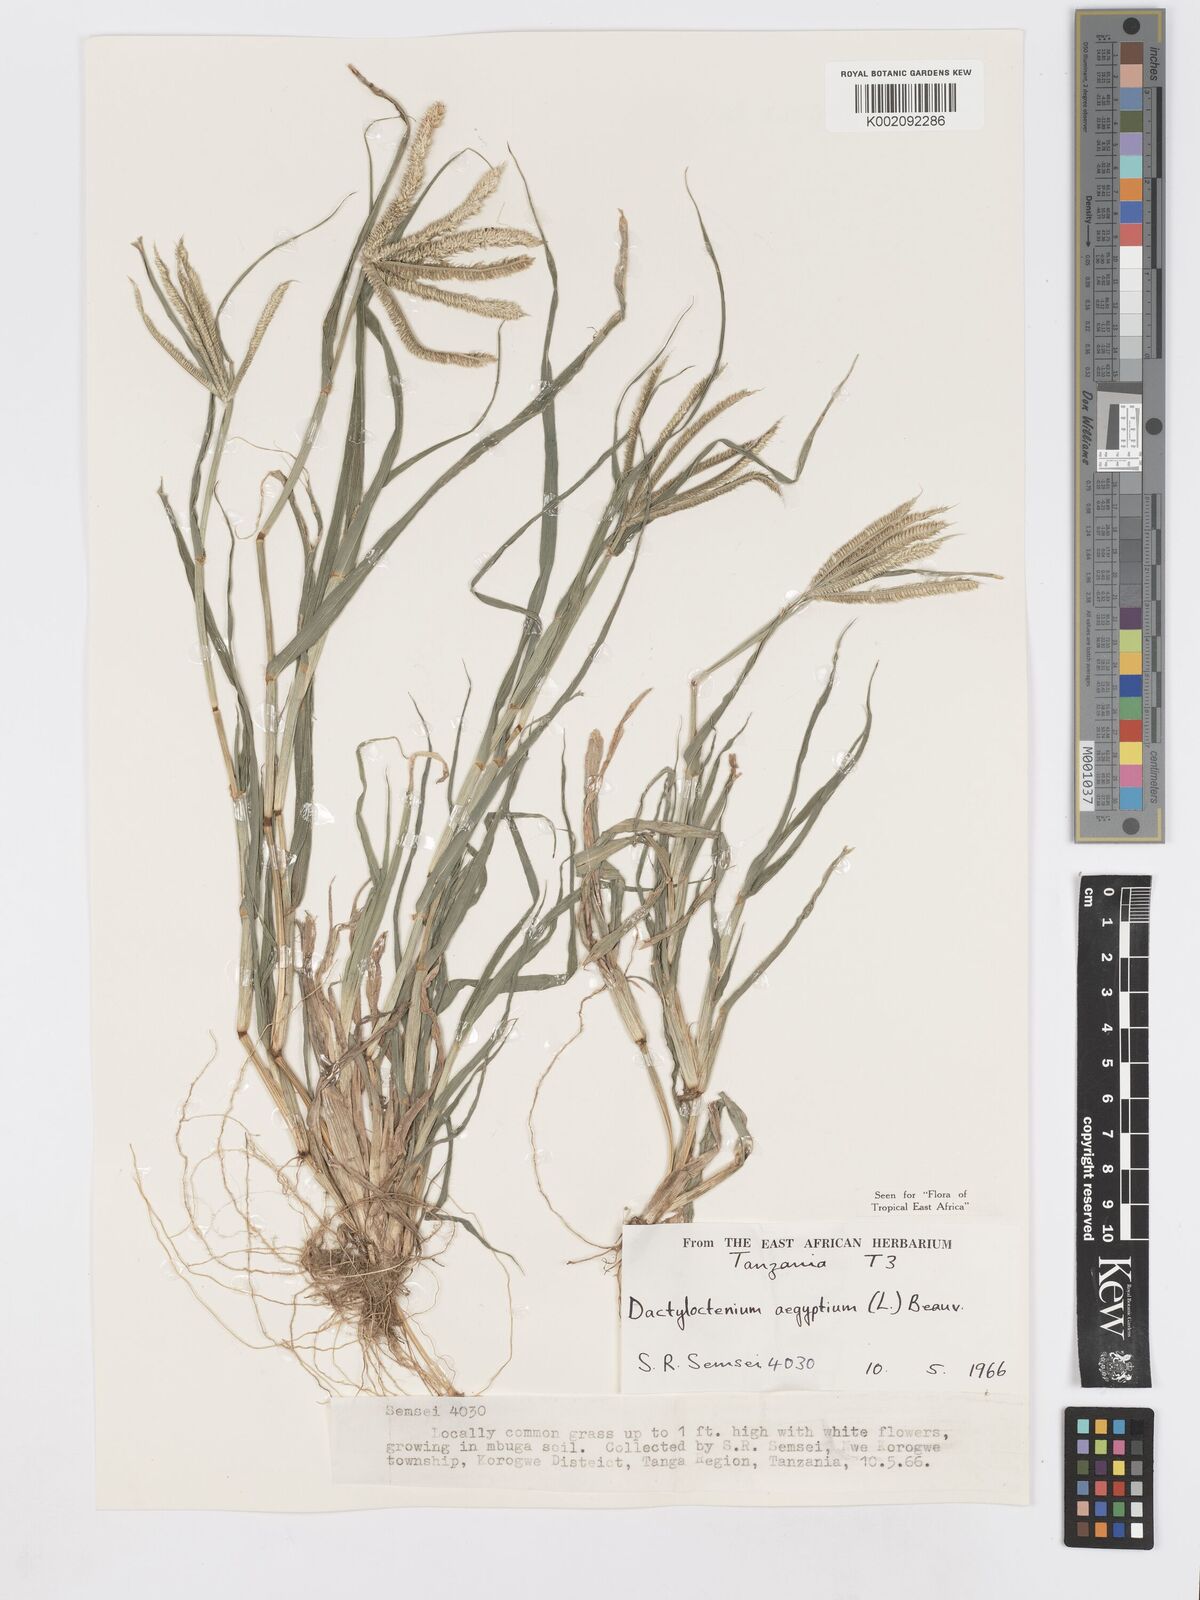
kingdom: Plantae
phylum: Tracheophyta
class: Liliopsida
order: Poales
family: Poaceae
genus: Dactyloctenium
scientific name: Dactyloctenium aegyptium
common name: Egyptian grass
